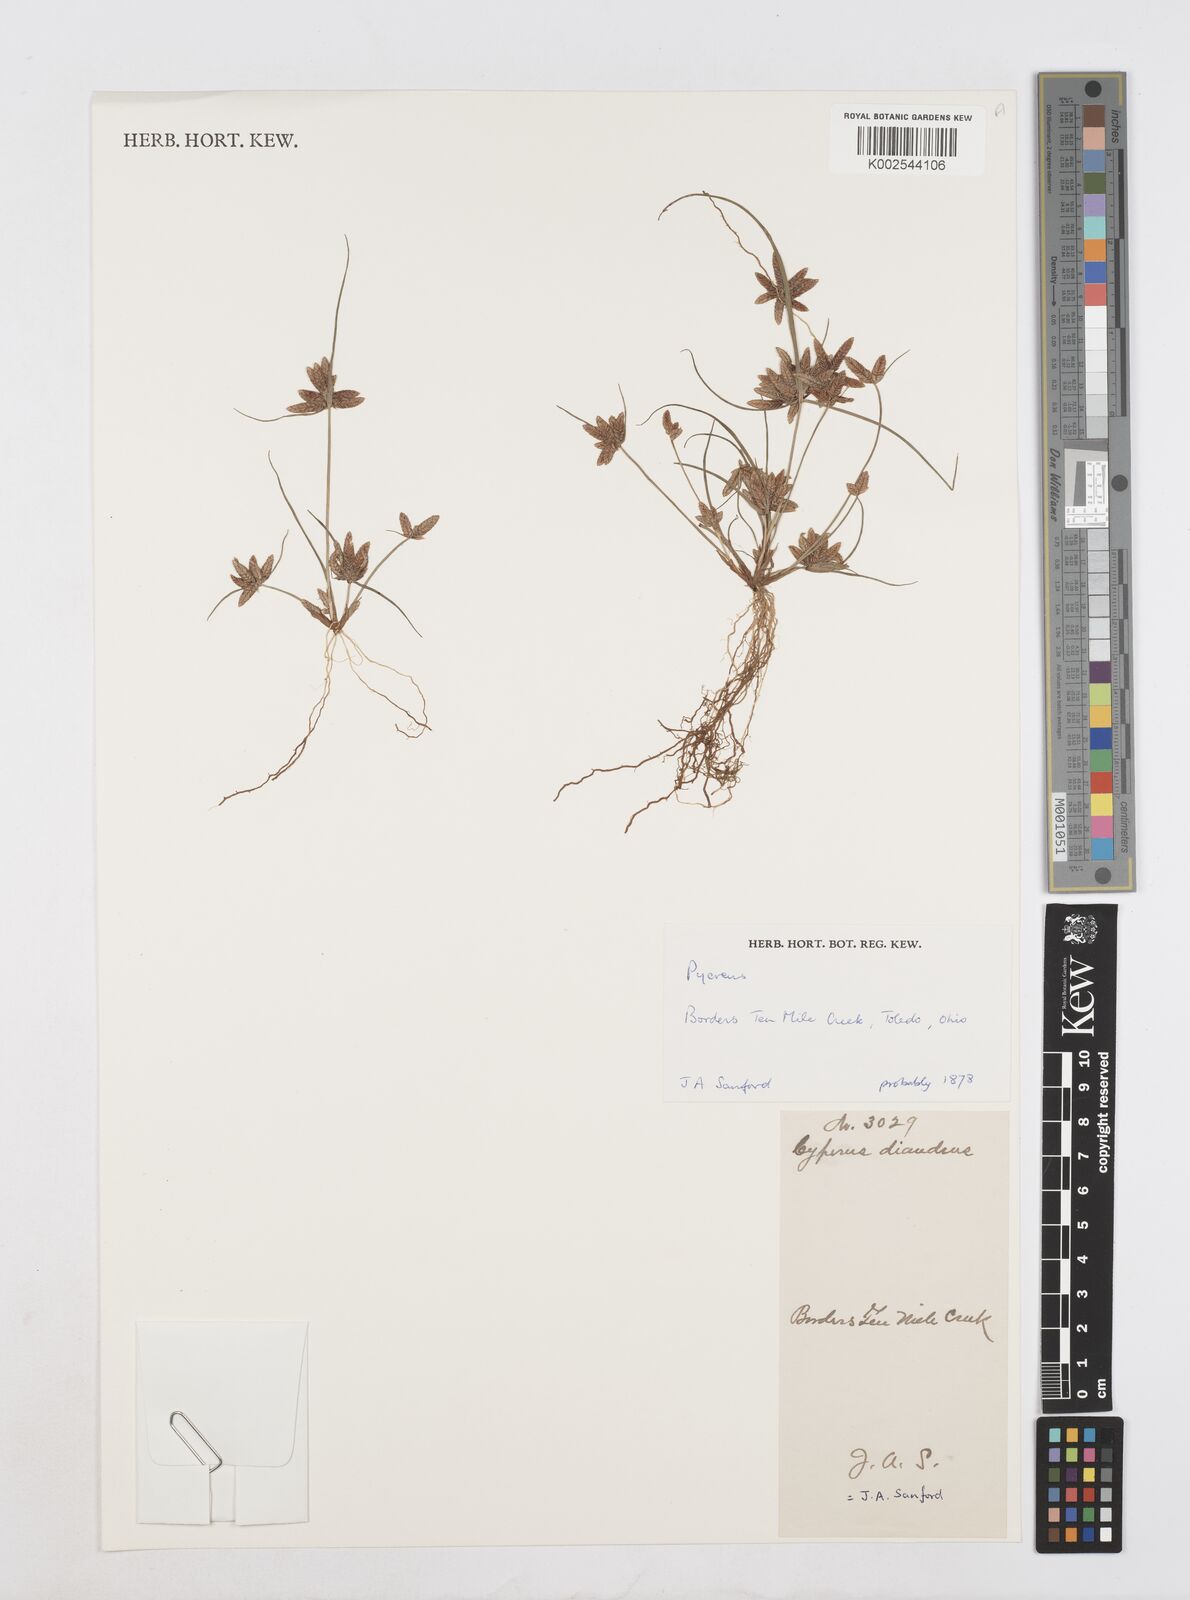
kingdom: Plantae
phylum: Tracheophyta
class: Liliopsida
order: Poales
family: Cyperaceae
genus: Cyperus
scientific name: Cyperus
